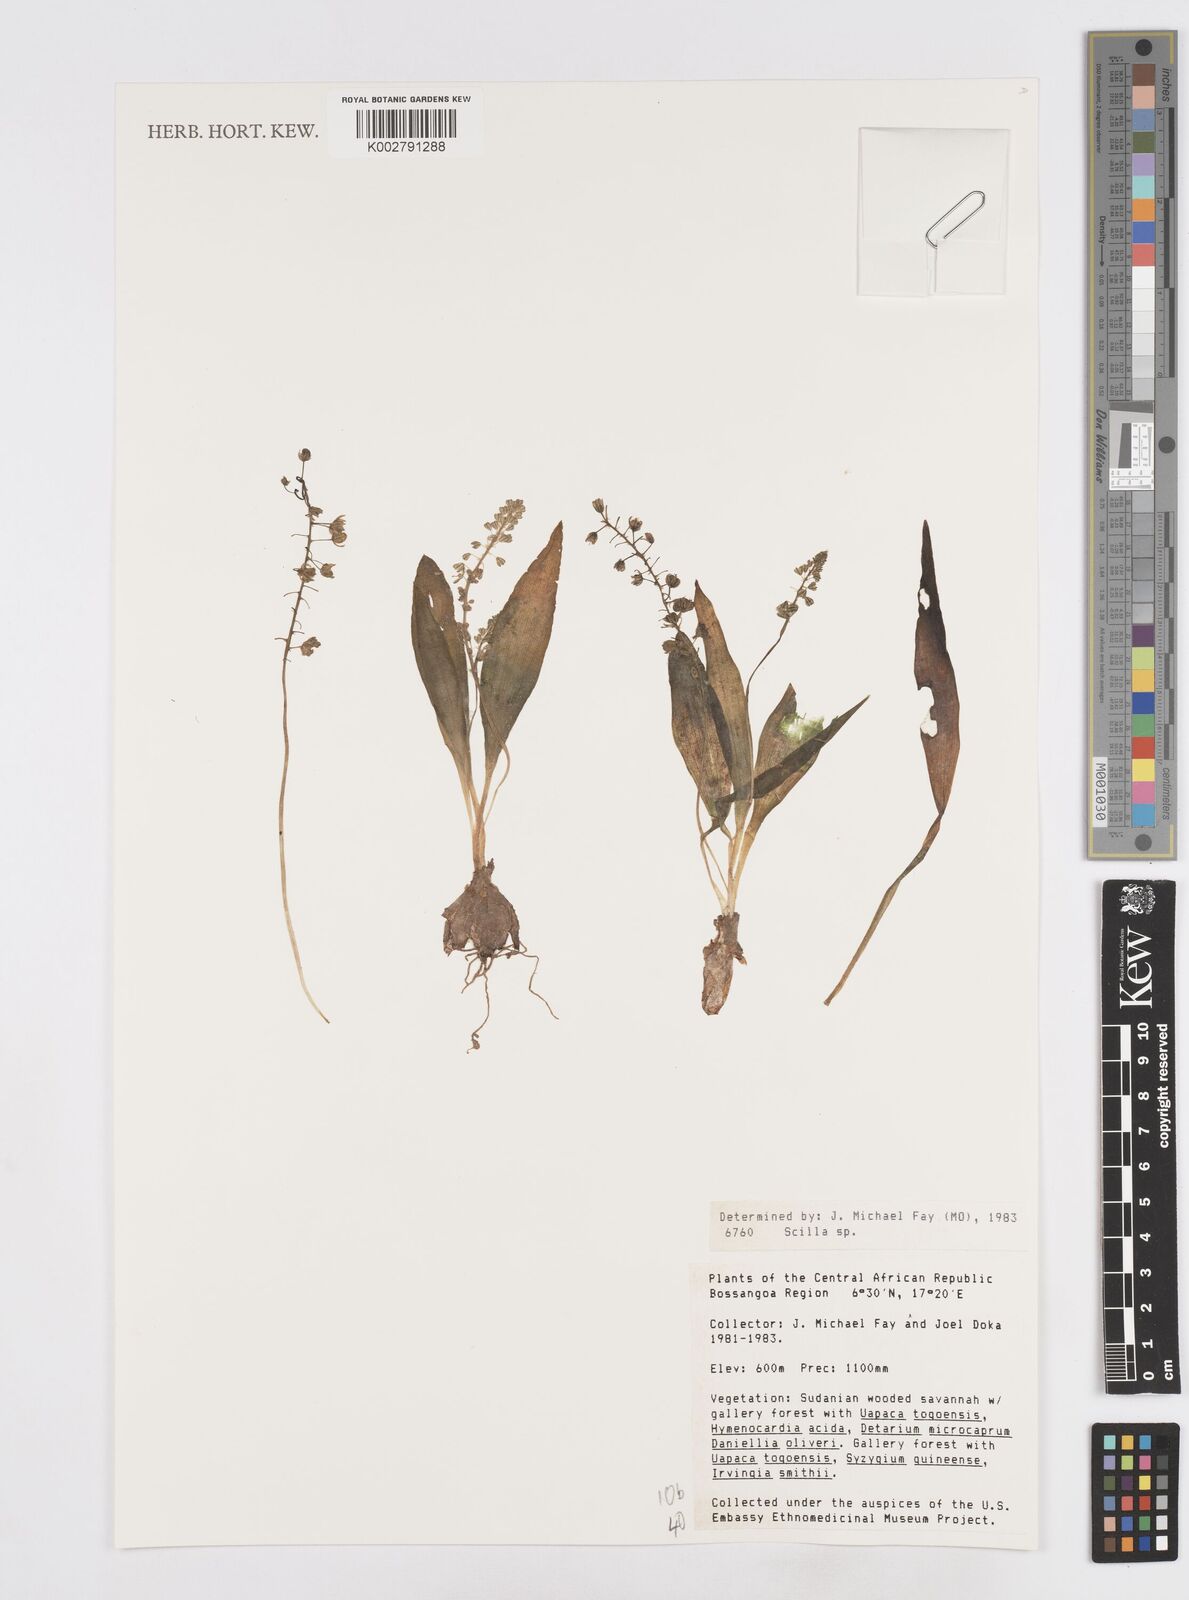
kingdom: Plantae
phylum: Tracheophyta
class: Liliopsida
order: Asparagales
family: Asparagaceae
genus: Scilla
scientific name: Scilla
